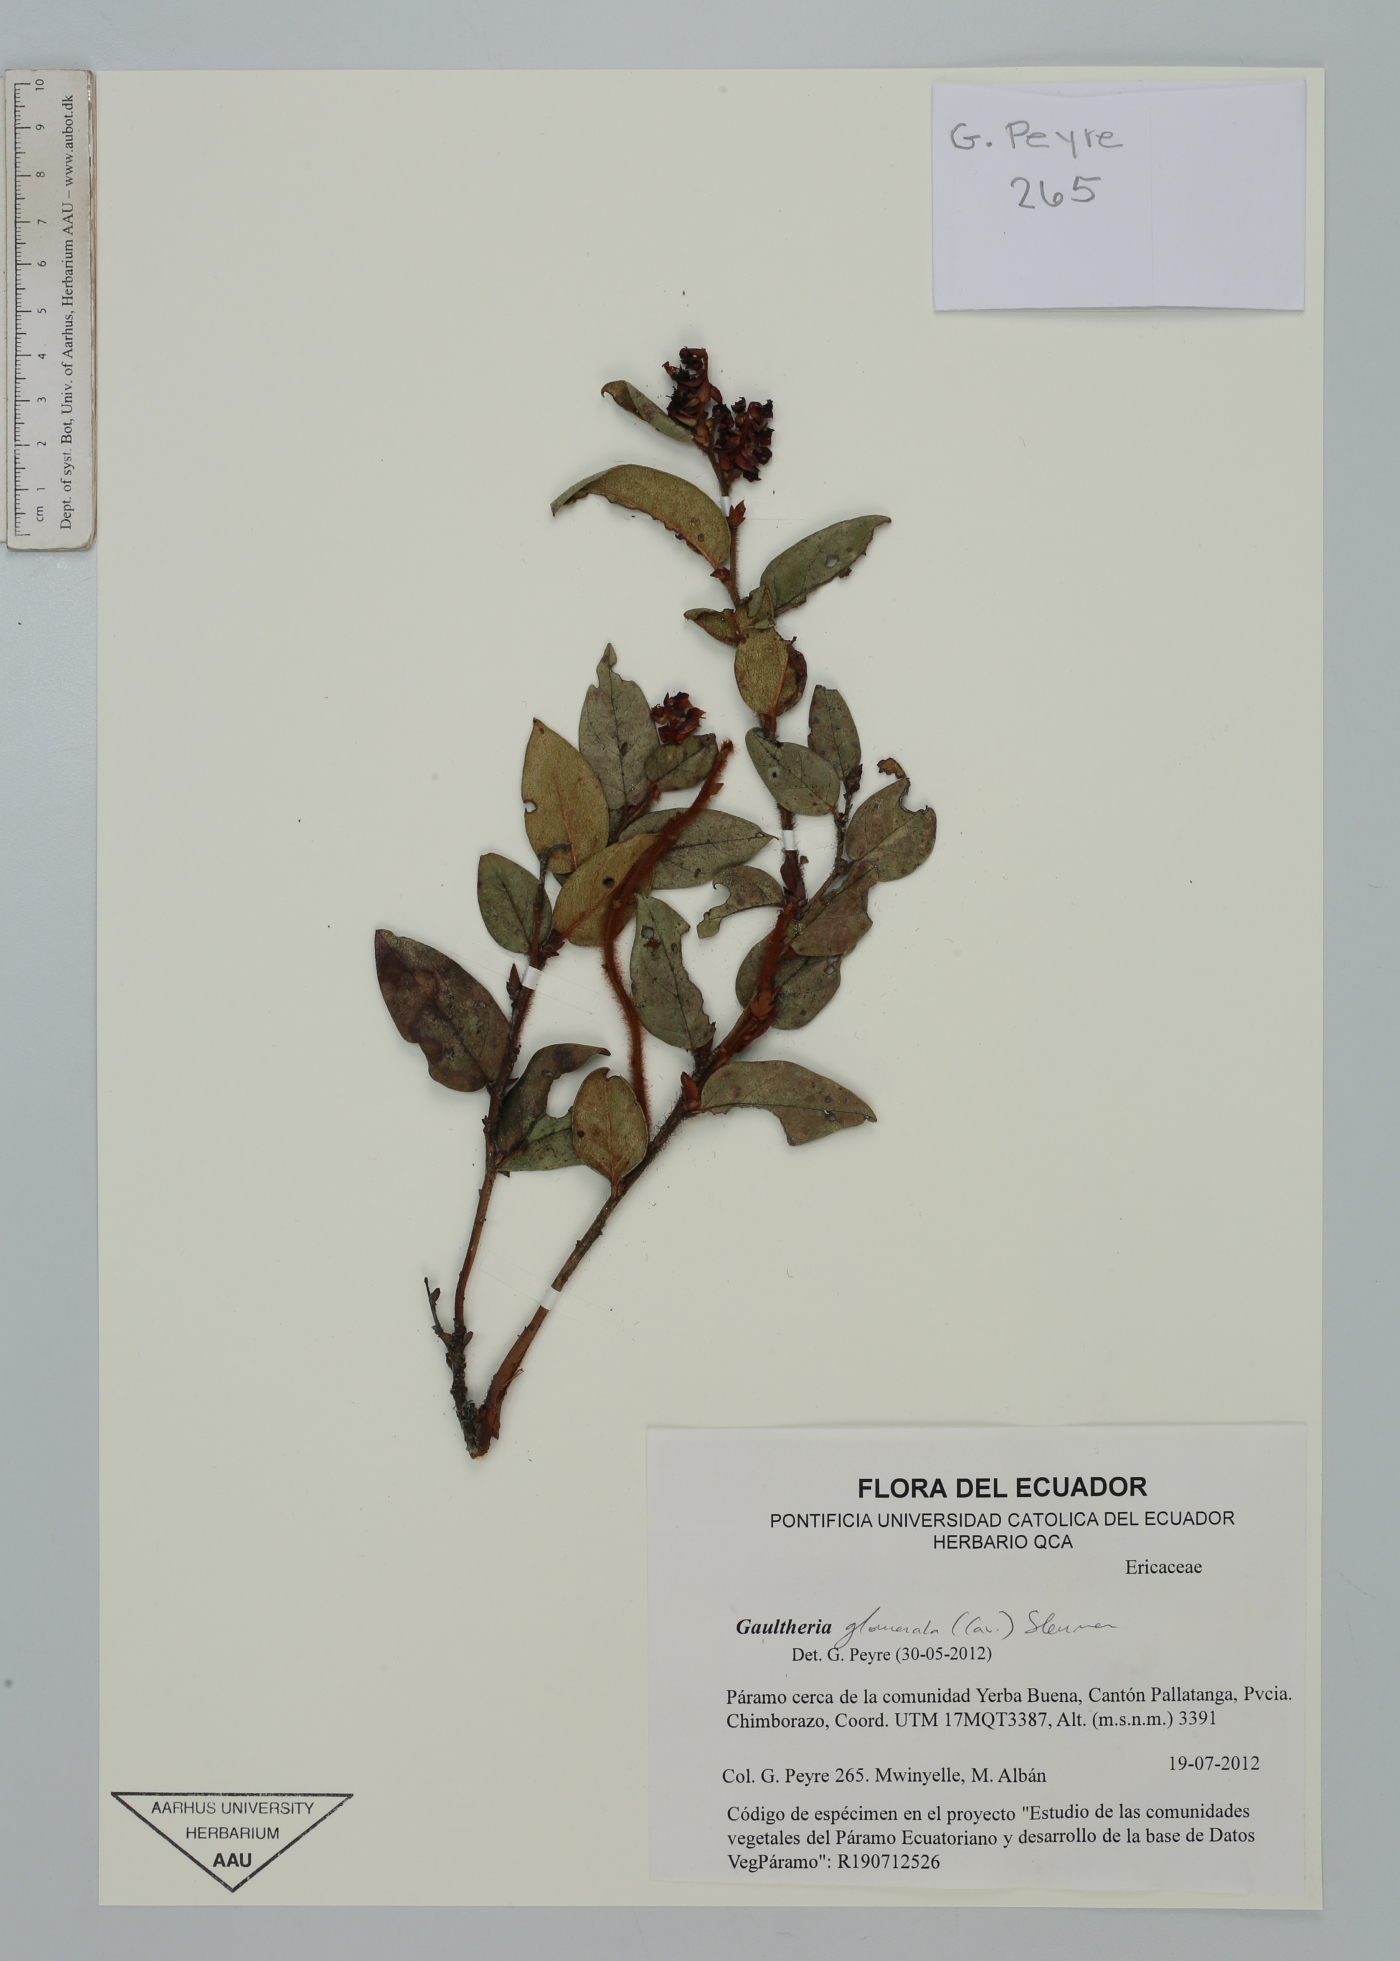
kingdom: Plantae
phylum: Tracheophyta
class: Magnoliopsida
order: Ericales
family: Ericaceae
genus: Gaultheria
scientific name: Gaultheria glomerata
